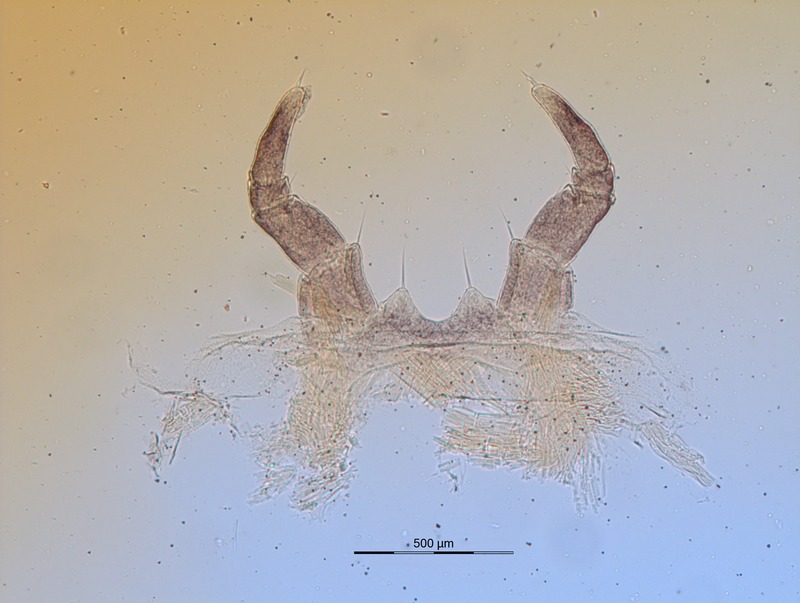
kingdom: Animalia
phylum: Arthropoda
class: Diplopoda
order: Glomerida
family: Glomeridae
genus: Glomeris
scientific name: Glomeris helvetica
